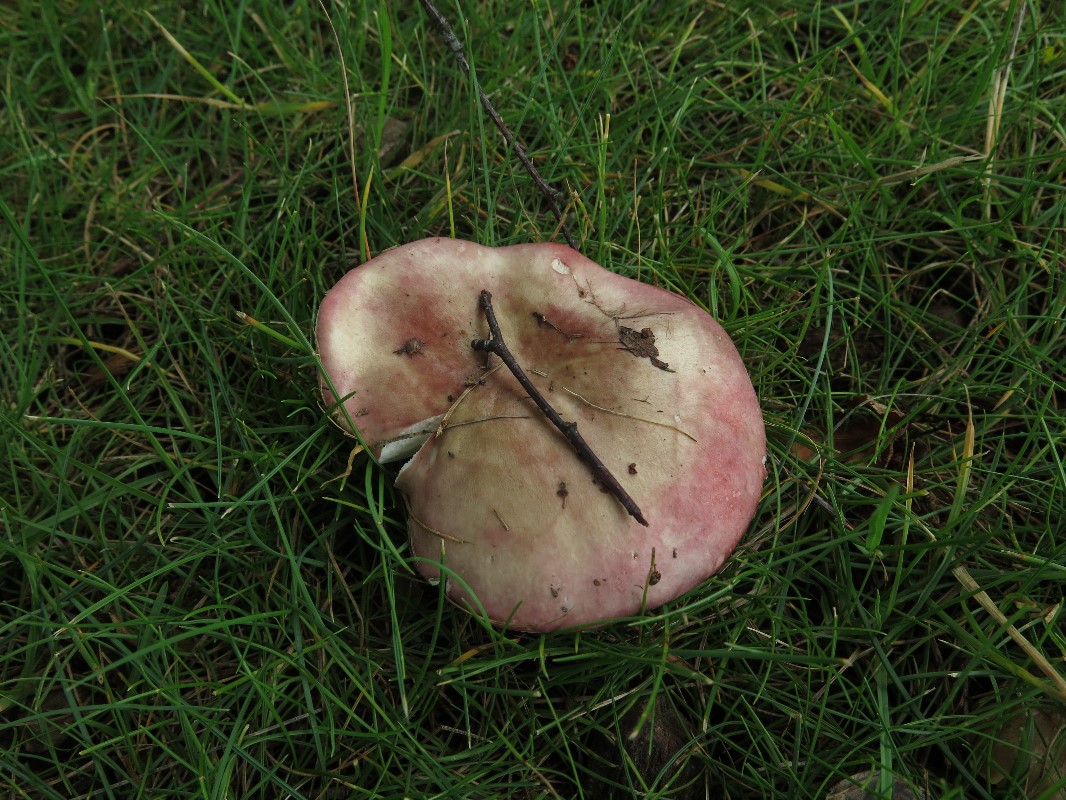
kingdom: Fungi
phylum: Basidiomycota
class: Agaricomycetes
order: Russulales
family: Russulaceae
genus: Russula
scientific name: Russula depallens
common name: falmende skørhat
